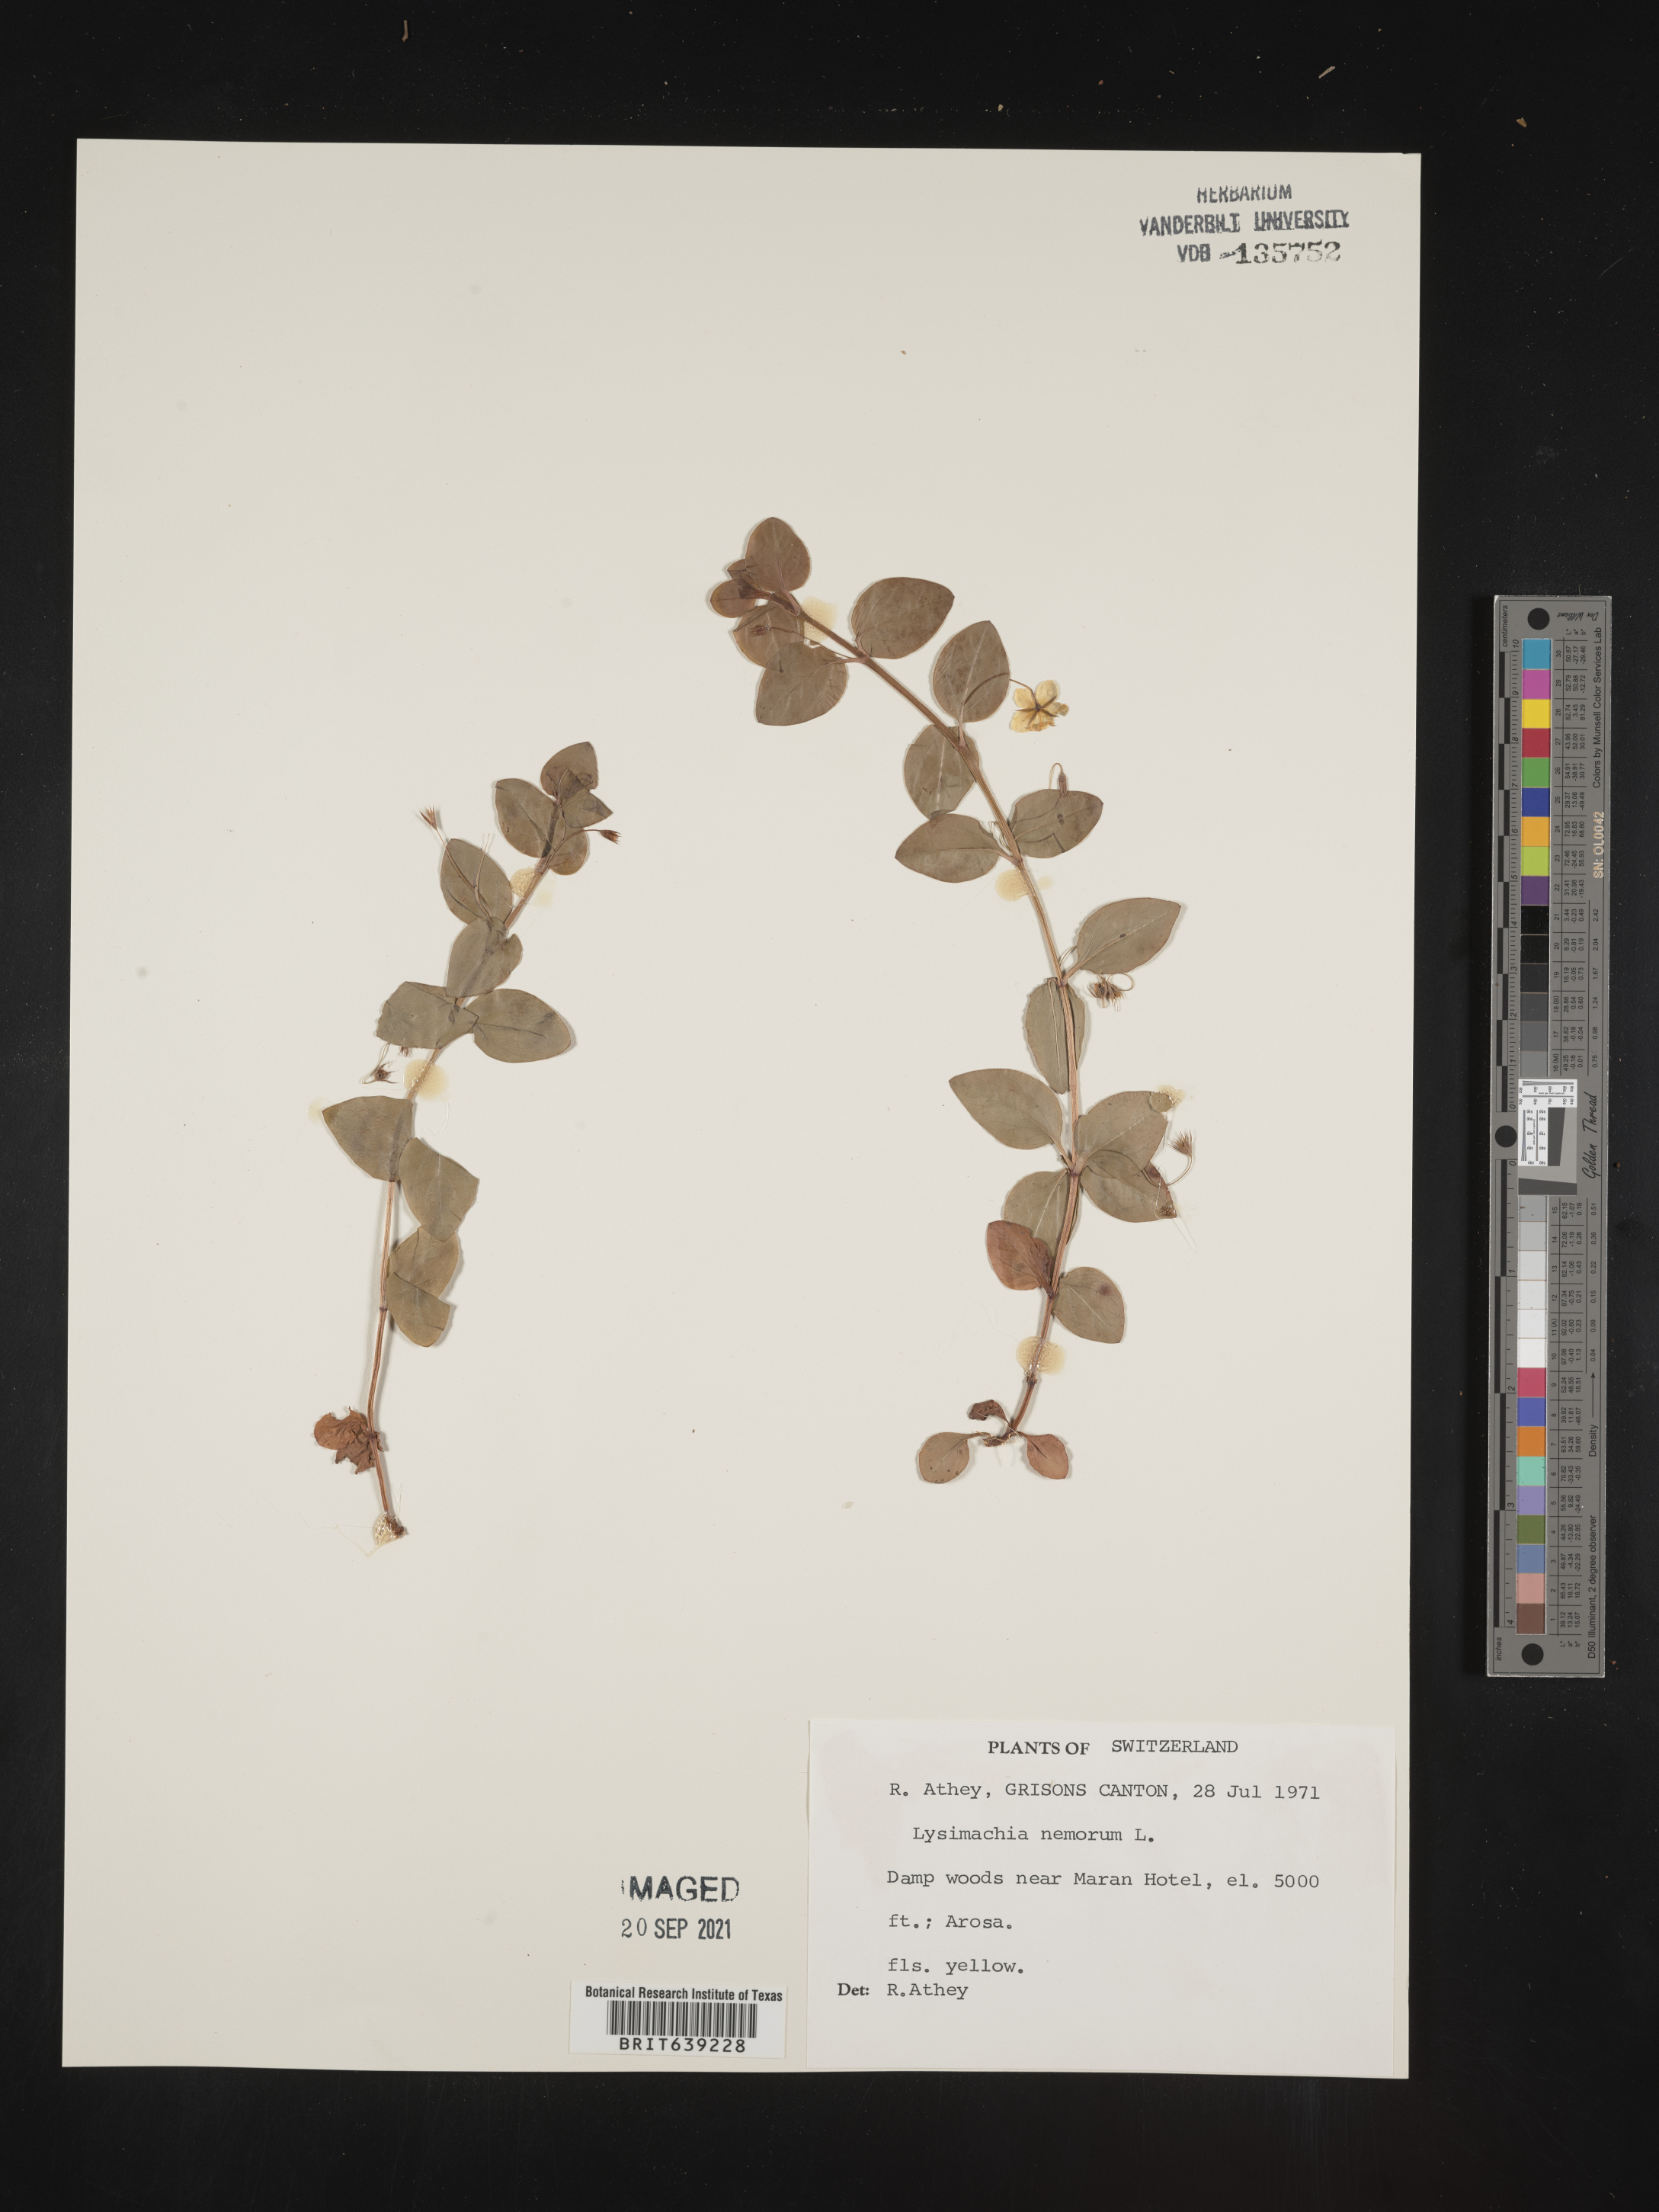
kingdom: Plantae
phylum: Tracheophyta
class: Magnoliopsida
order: Ericales
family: Primulaceae
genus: Lysimachia
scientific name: Lysimachia
